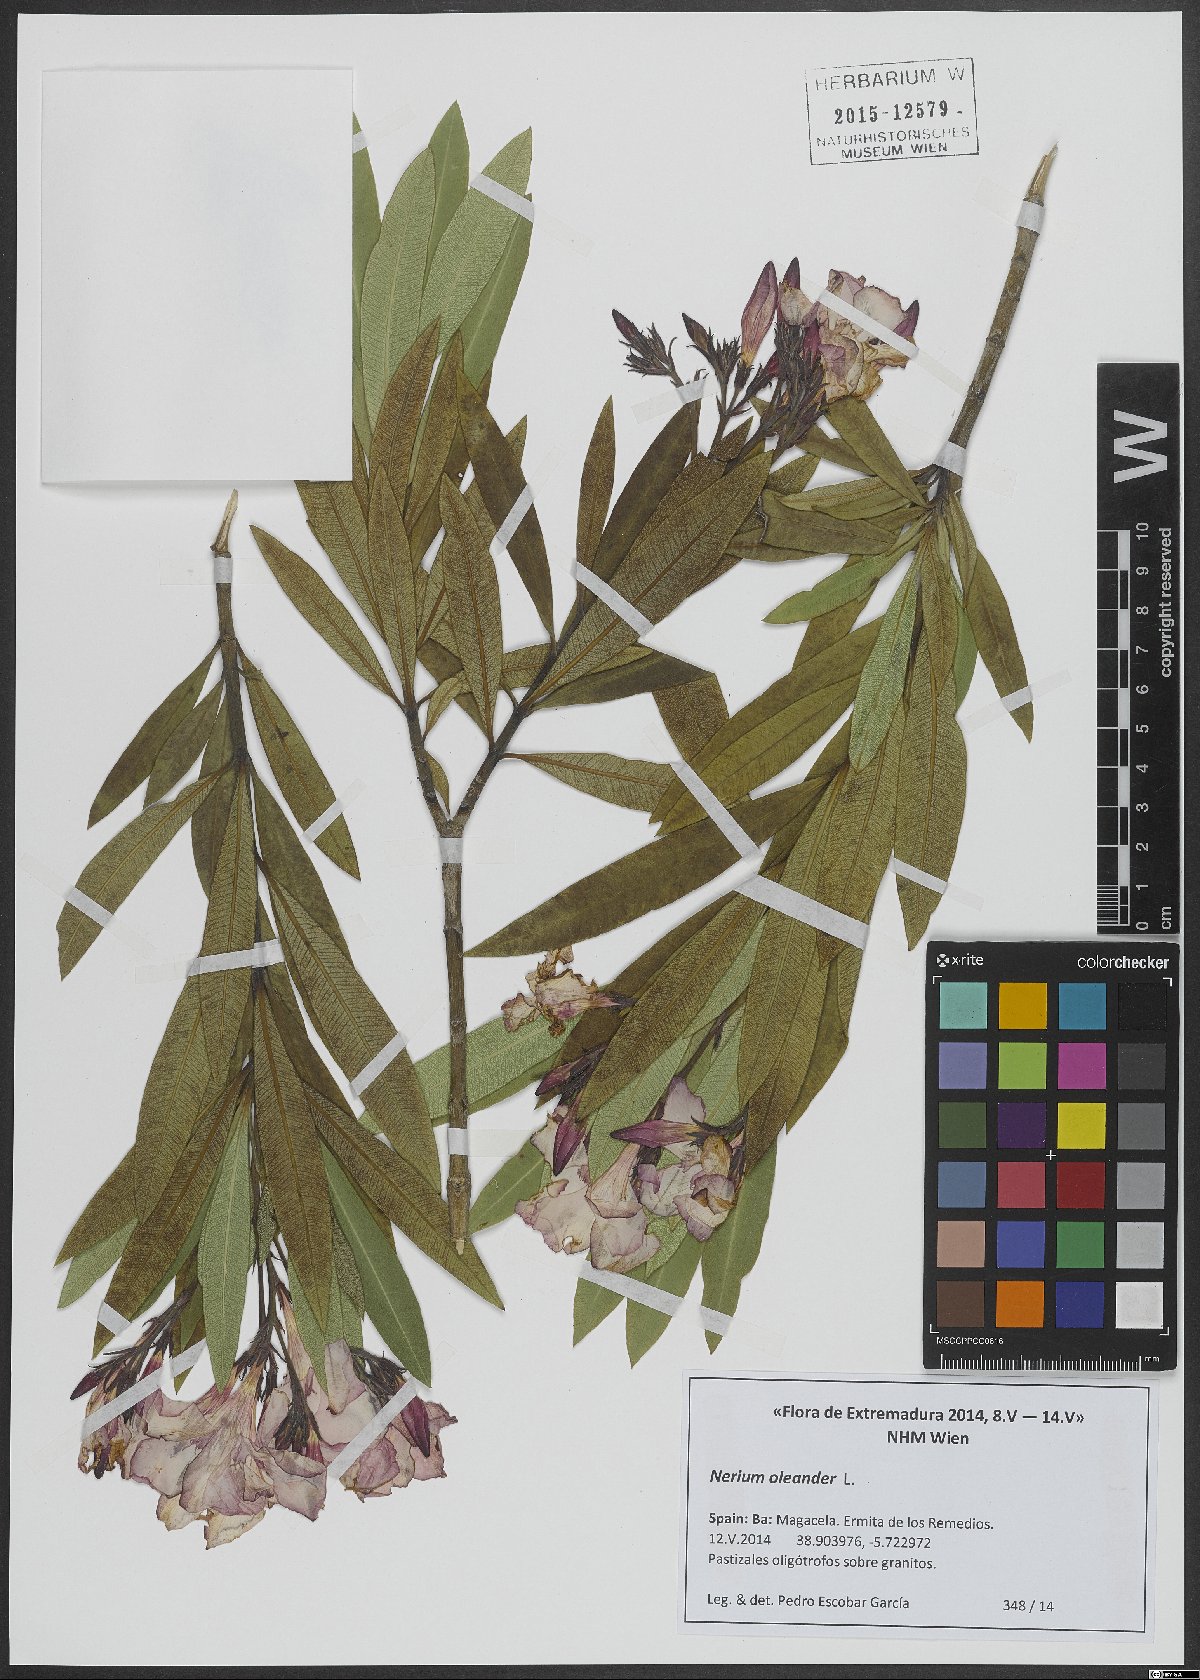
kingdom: Plantae
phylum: Tracheophyta
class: Magnoliopsida
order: Gentianales
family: Apocynaceae
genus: Nerium
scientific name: Nerium oleander
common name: Oleander
